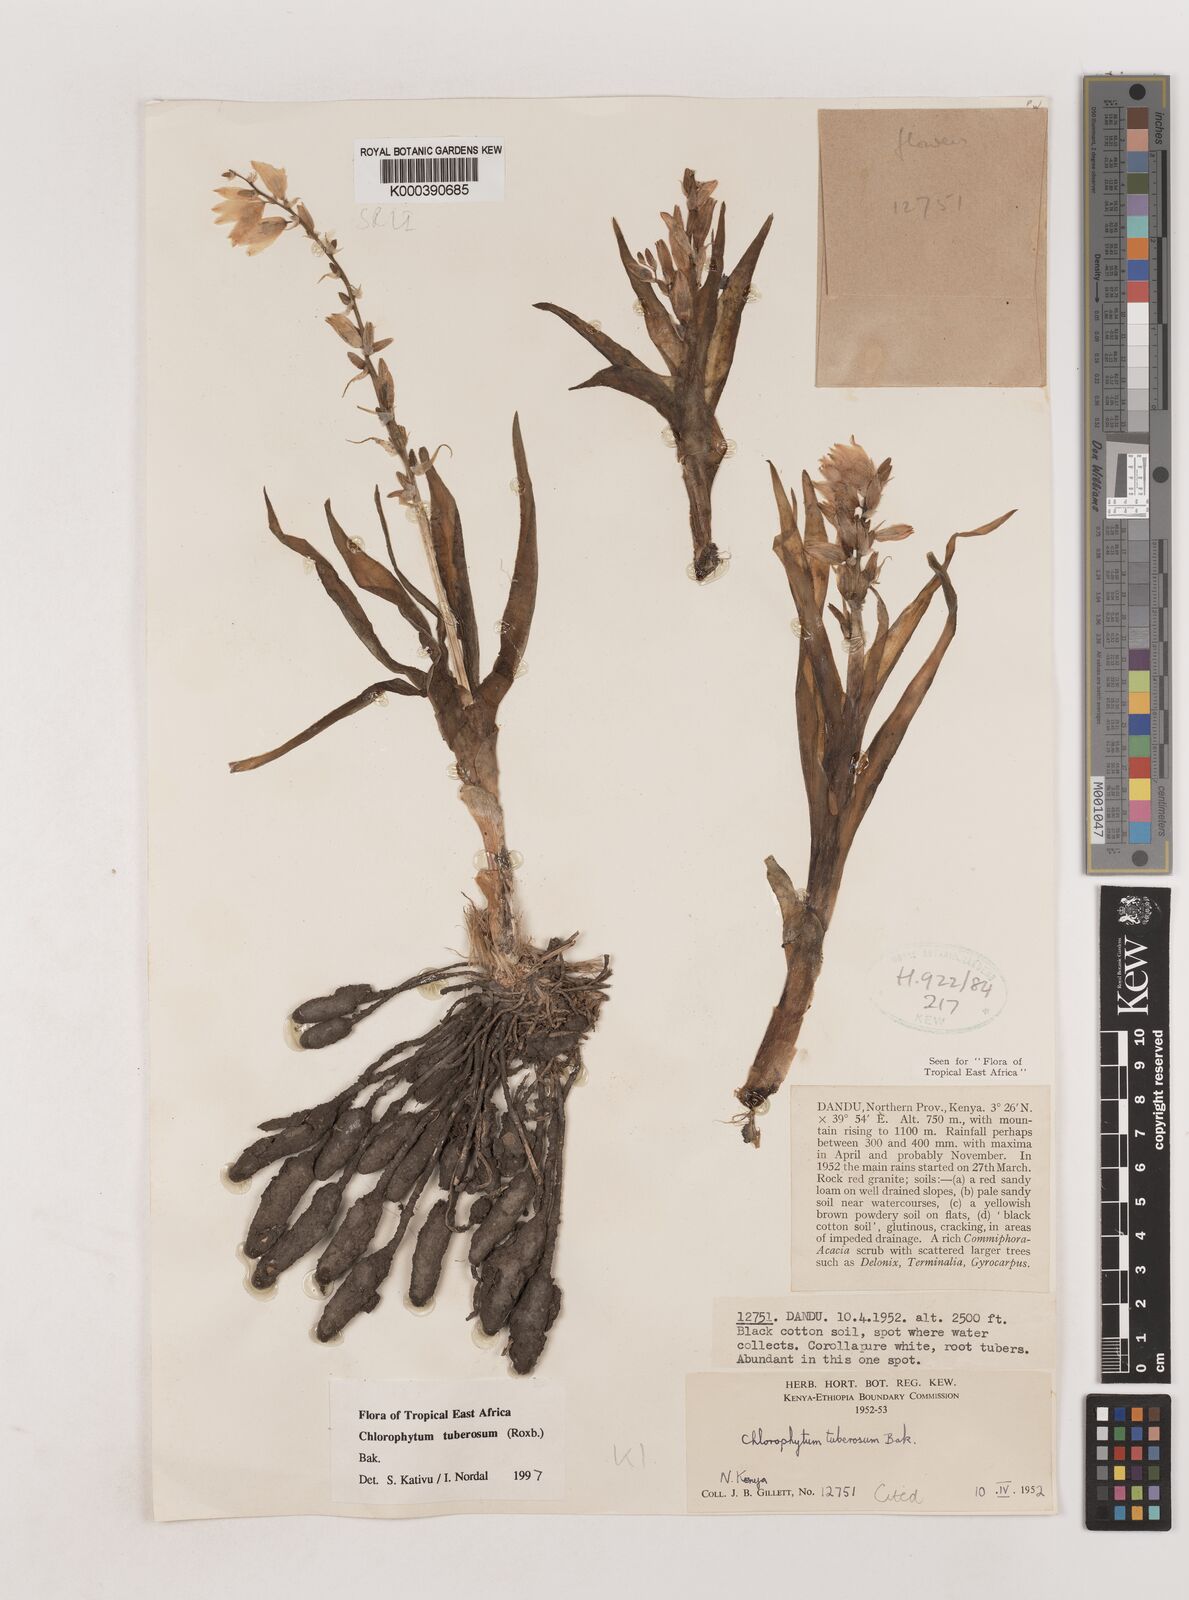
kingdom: Plantae
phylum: Tracheophyta
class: Liliopsida
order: Asparagales
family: Asparagaceae
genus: Chlorophytum
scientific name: Chlorophytum tuberosum
